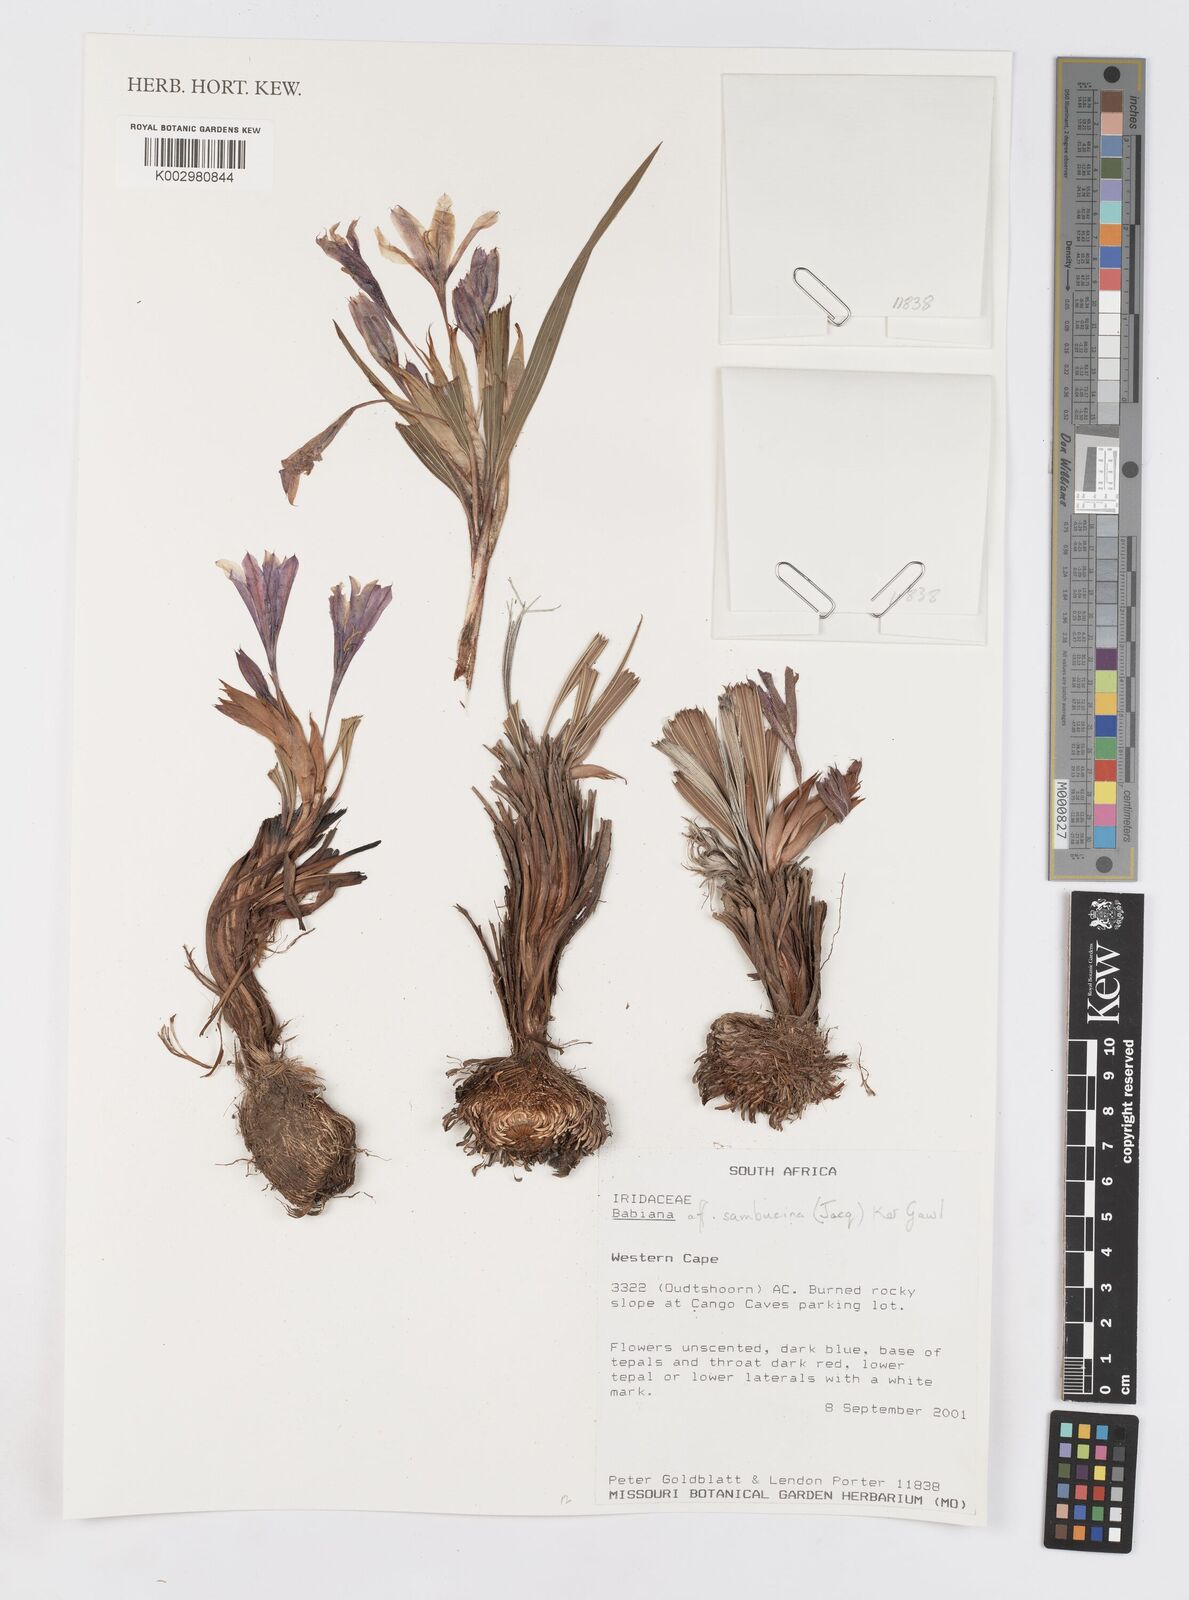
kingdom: Plantae
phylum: Tracheophyta
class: Liliopsida
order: Asparagales
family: Iridaceae
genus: Babiana
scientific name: Babiana sambucina
